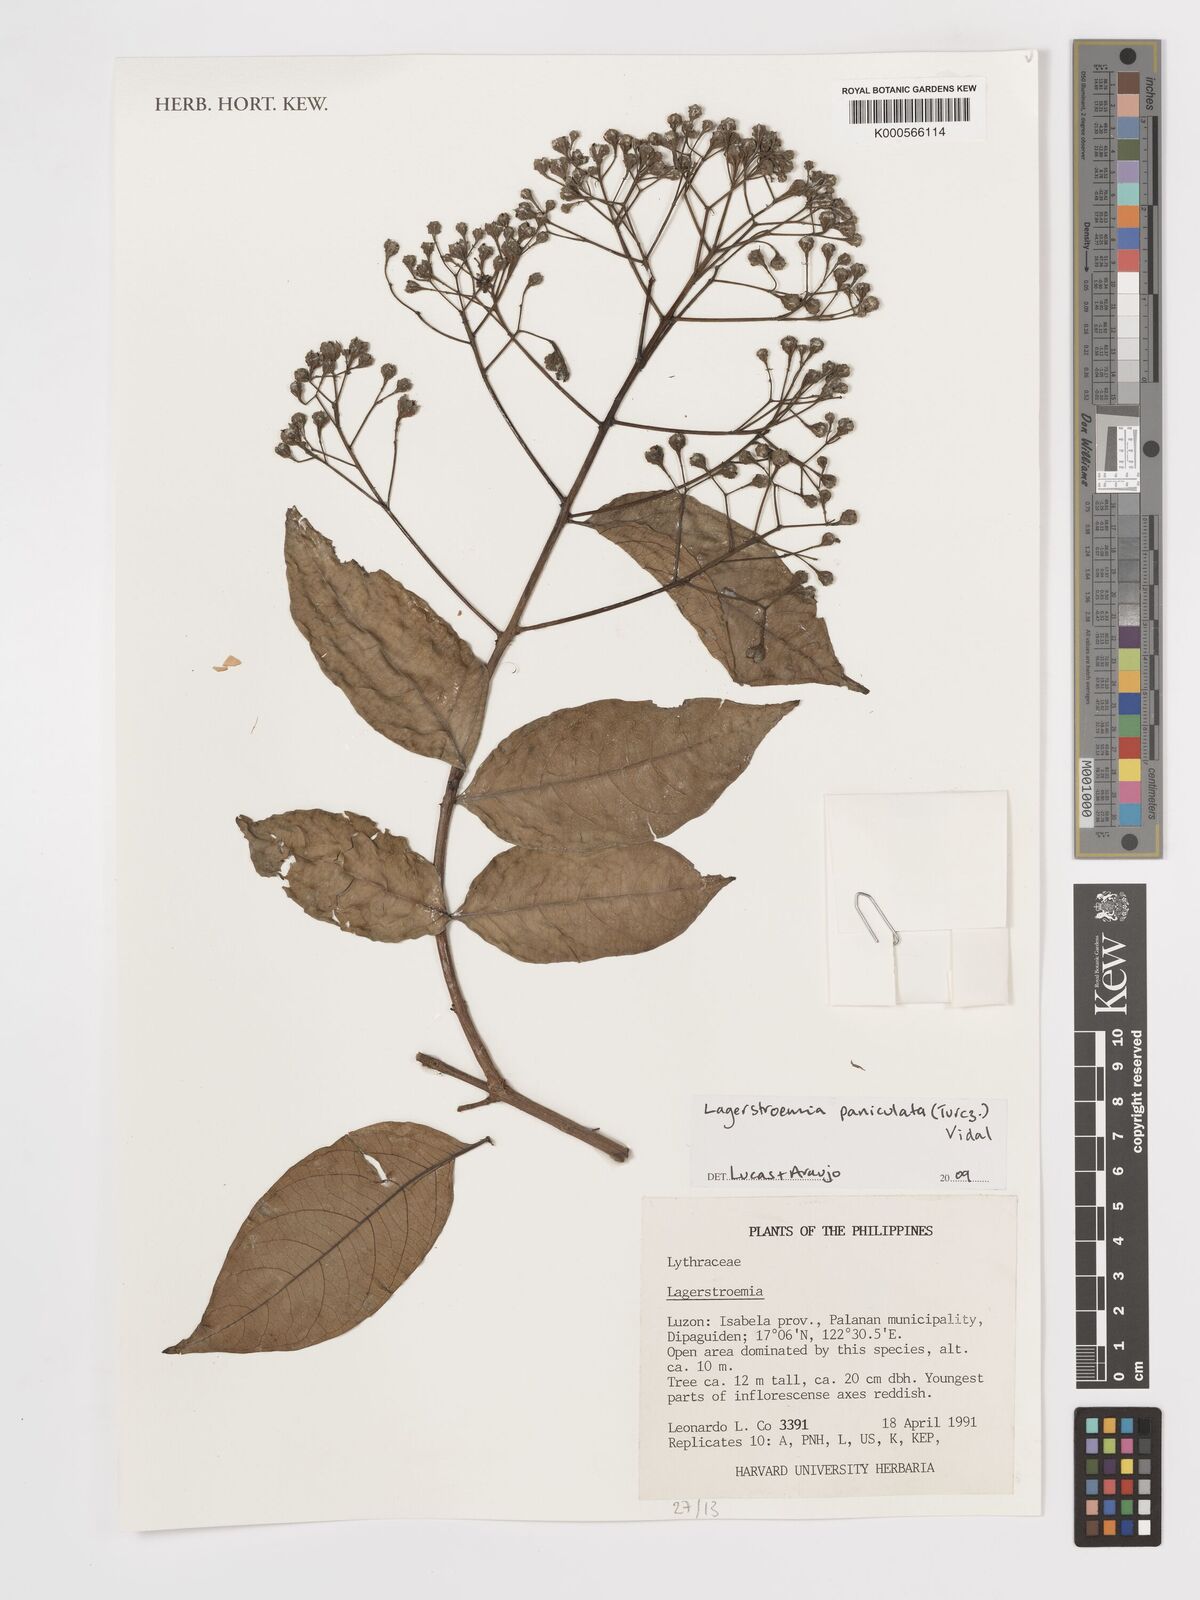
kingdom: Plantae
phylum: Tracheophyta
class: Magnoliopsida
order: Myrtales
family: Lythraceae
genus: Lagerstroemia
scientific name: Lagerstroemia
